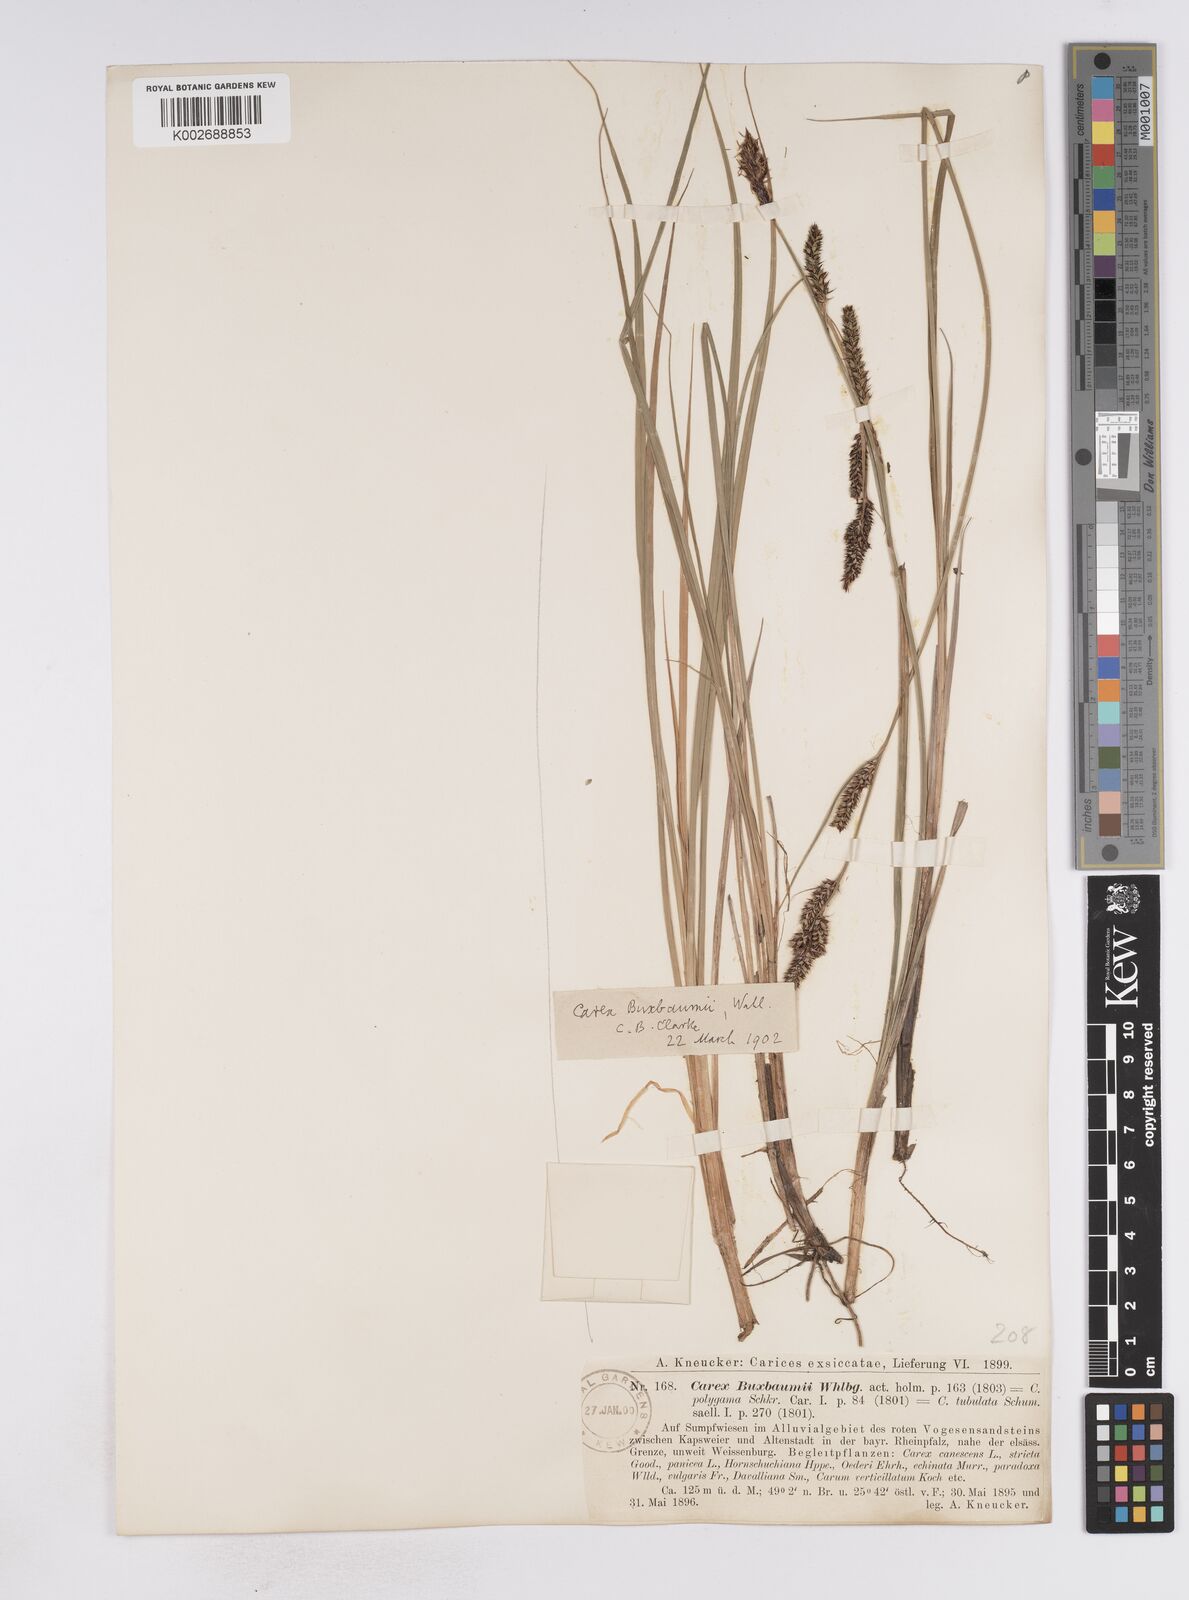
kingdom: Plantae
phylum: Tracheophyta
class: Liliopsida
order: Poales
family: Cyperaceae
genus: Carex
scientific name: Carex buxbaumii
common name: Club sedge
